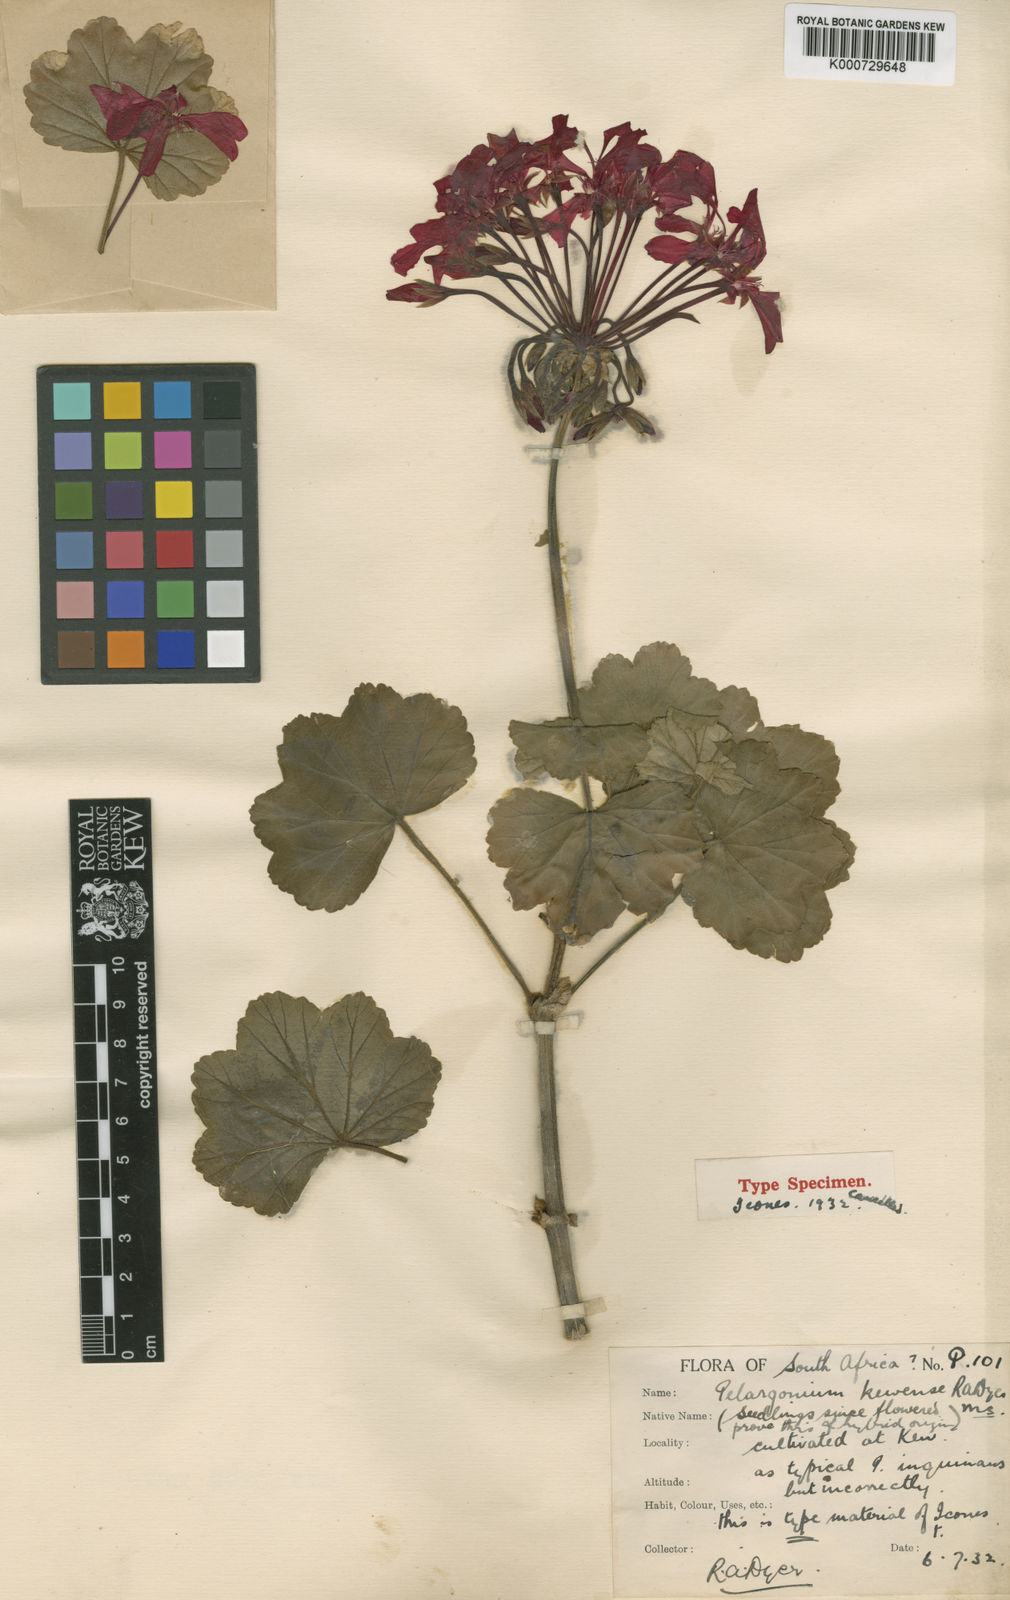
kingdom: Plantae
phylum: Tracheophyta
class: Magnoliopsida
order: Geraniales
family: Geraniaceae
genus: Pelargonium
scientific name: Pelargonium
